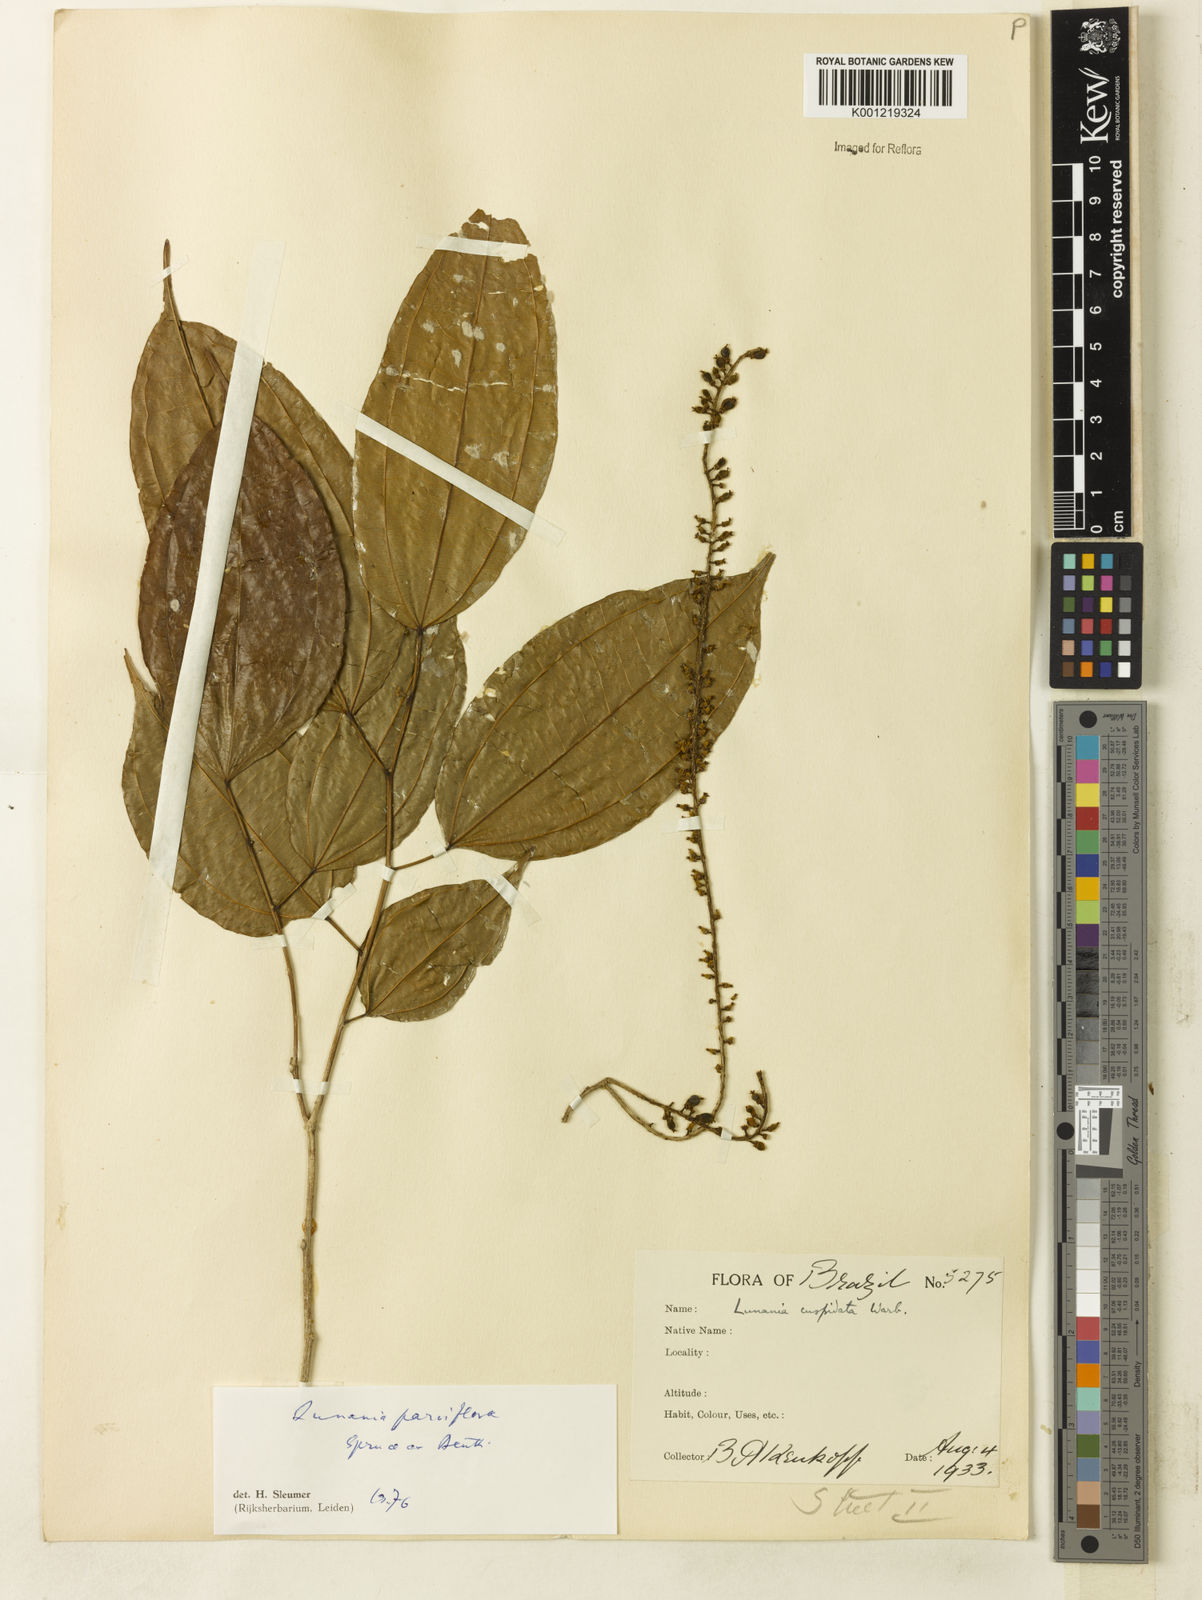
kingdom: Plantae
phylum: Tracheophyta
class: Magnoliopsida
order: Malpighiales
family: Salicaceae
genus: Lunania
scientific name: Lunania parviflora
